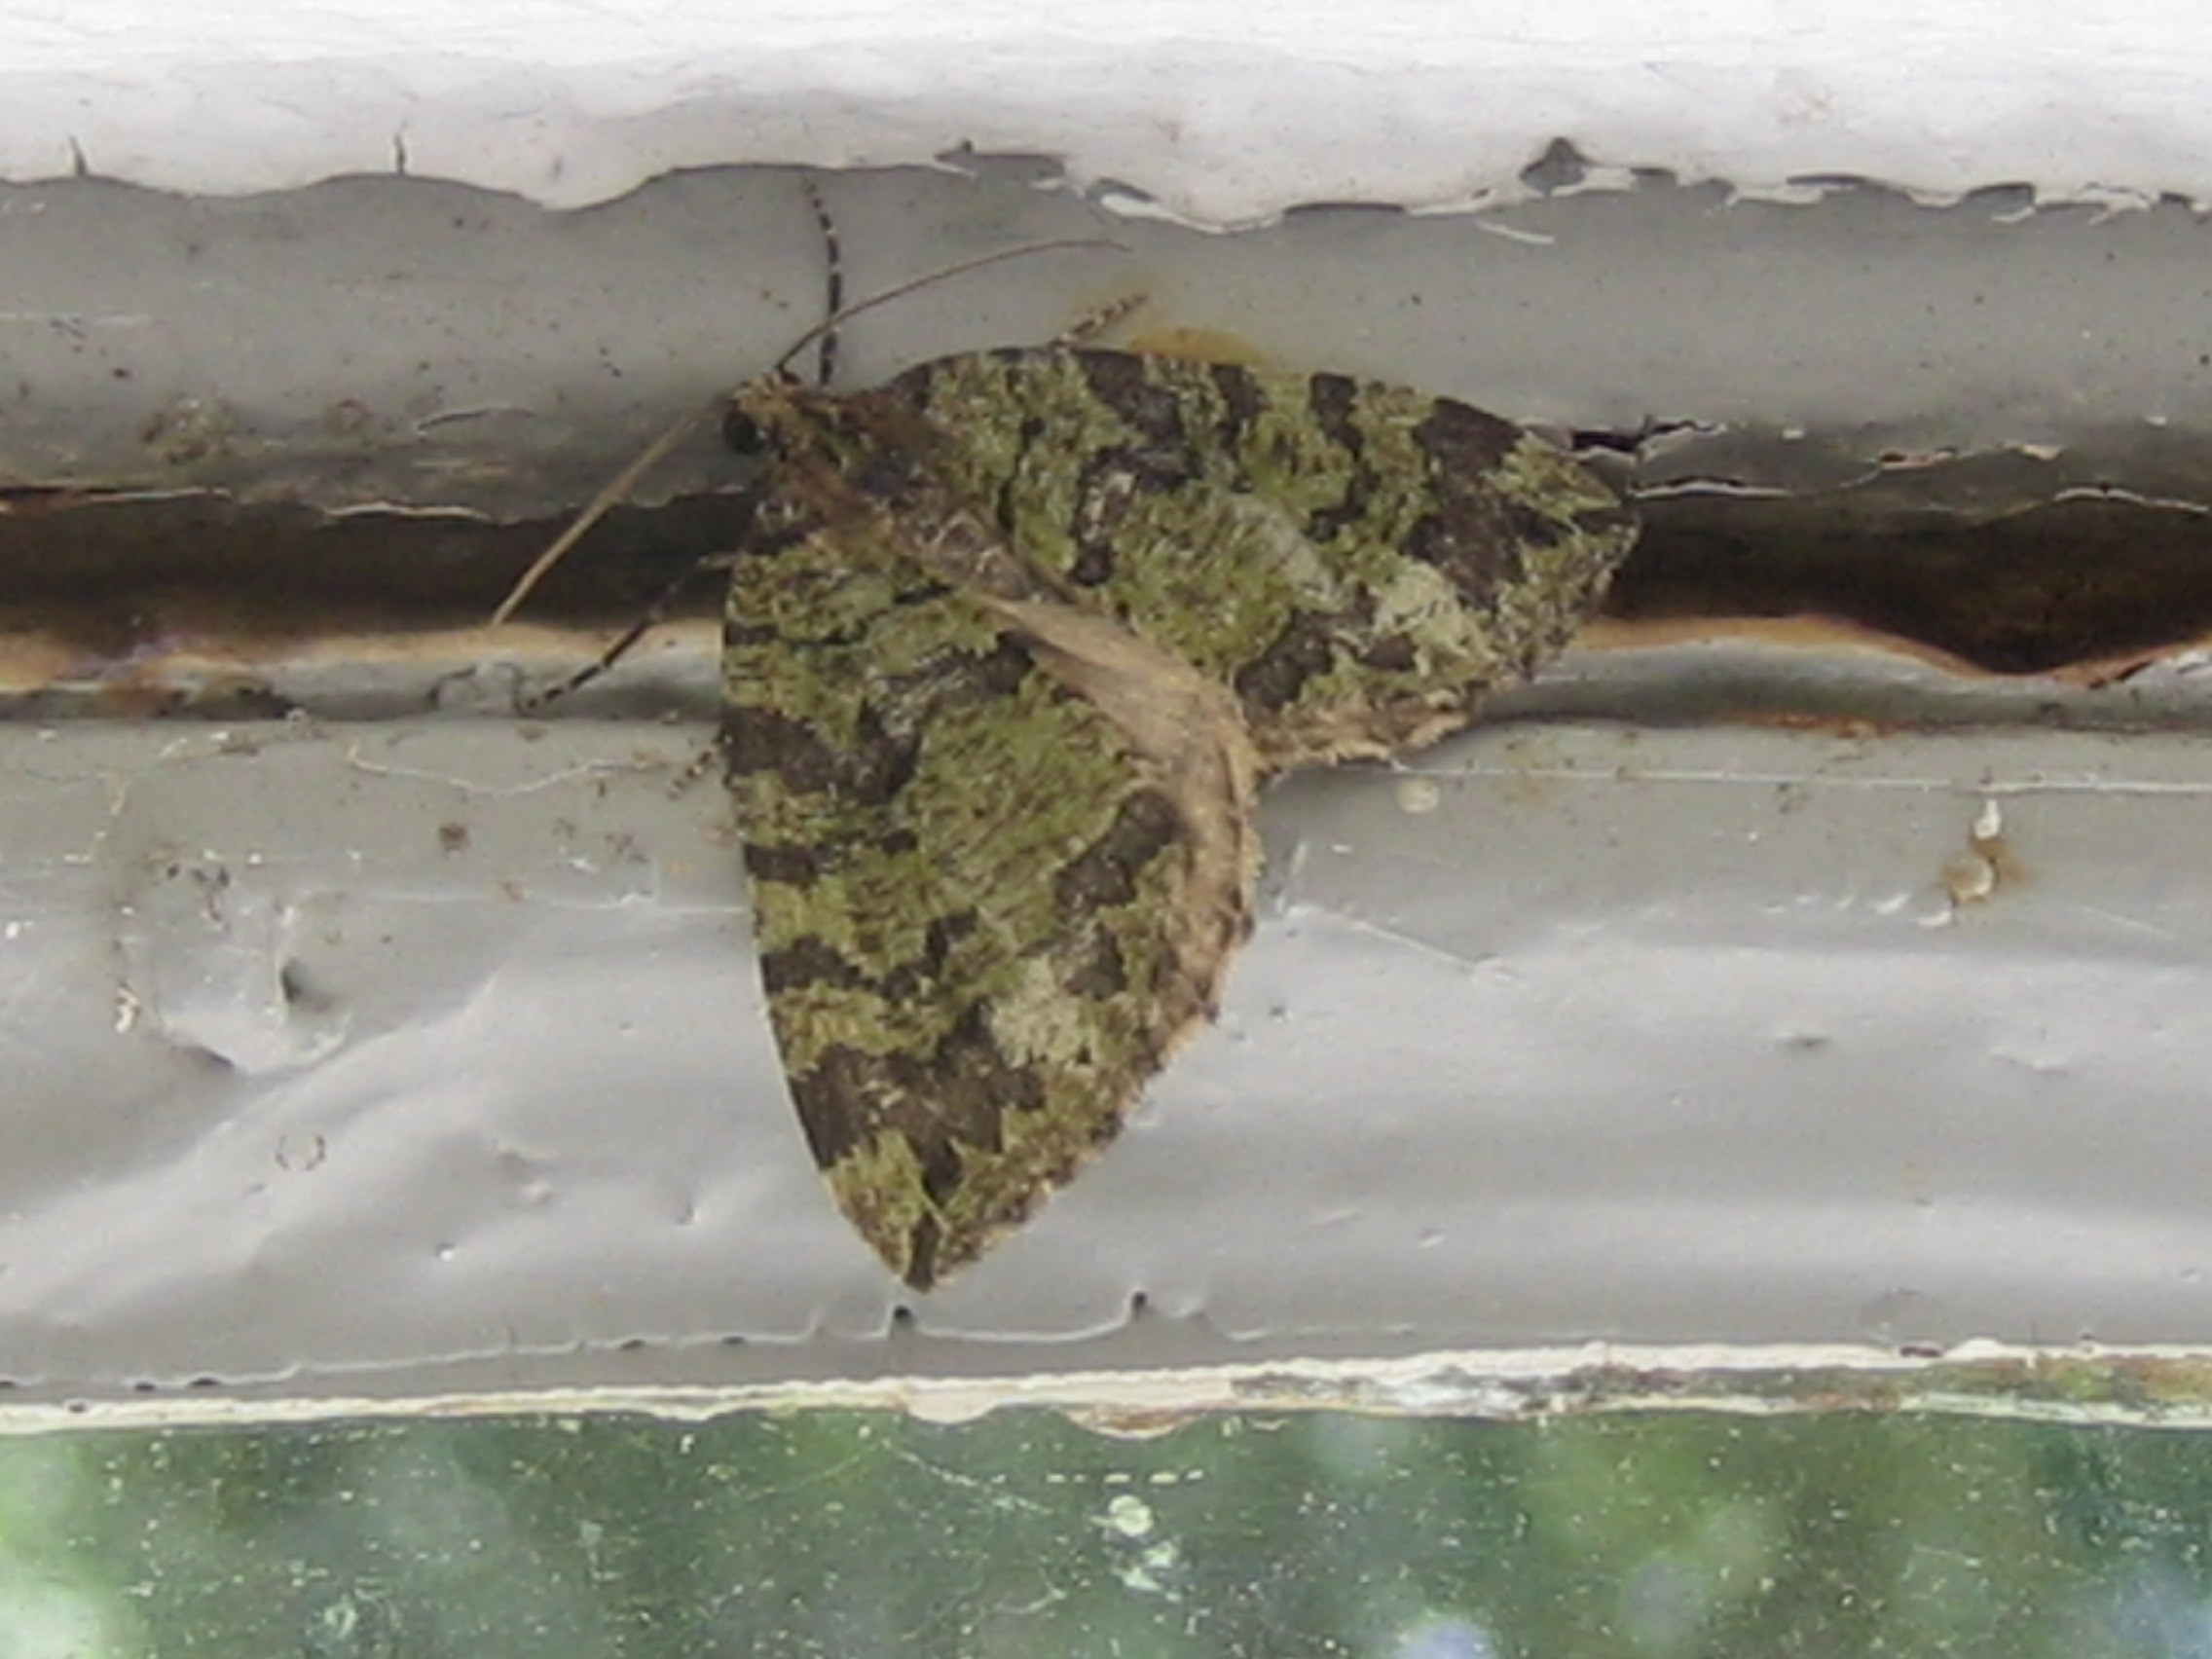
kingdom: Animalia
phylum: Arthropoda
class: Insecta
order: Lepidoptera
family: Geometridae
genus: Hydriomena
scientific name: Hydriomena furcata
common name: Vatret bladmåler
